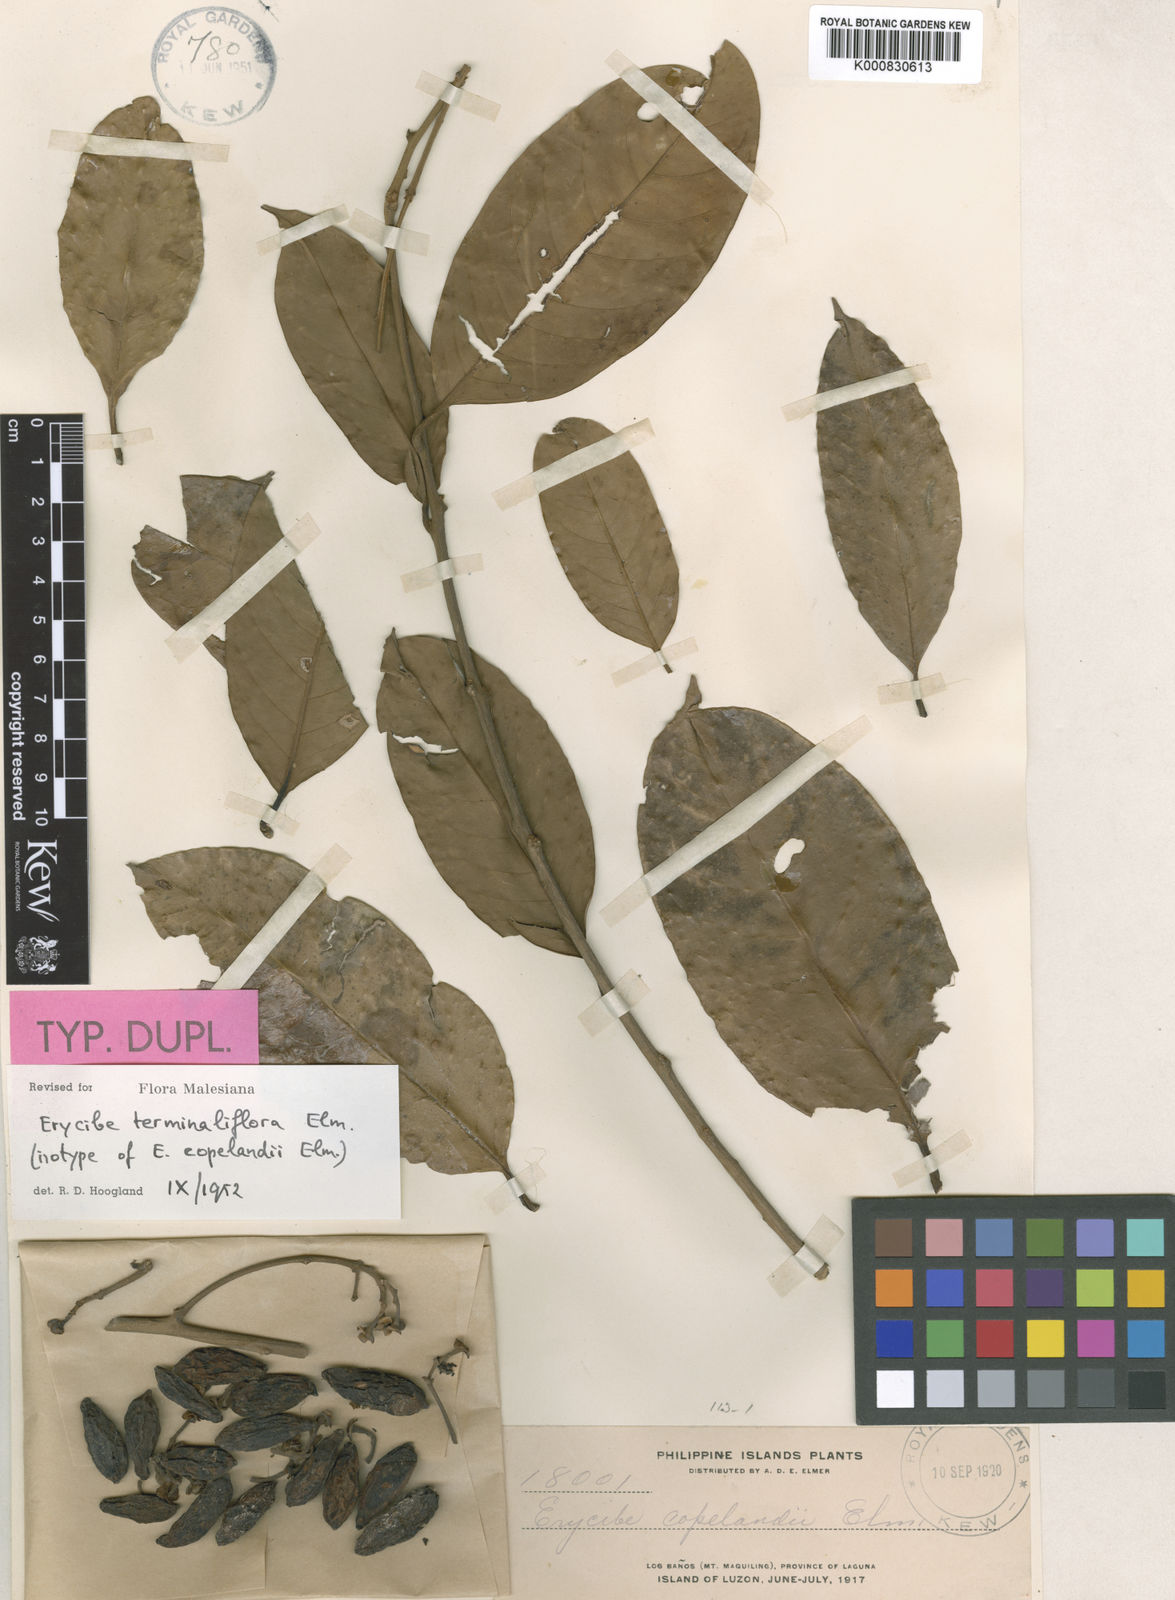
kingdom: Plantae
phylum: Tracheophyta
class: Magnoliopsida
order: Solanales
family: Convolvulaceae
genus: Erycibe
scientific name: Erycibe terminaliflora
